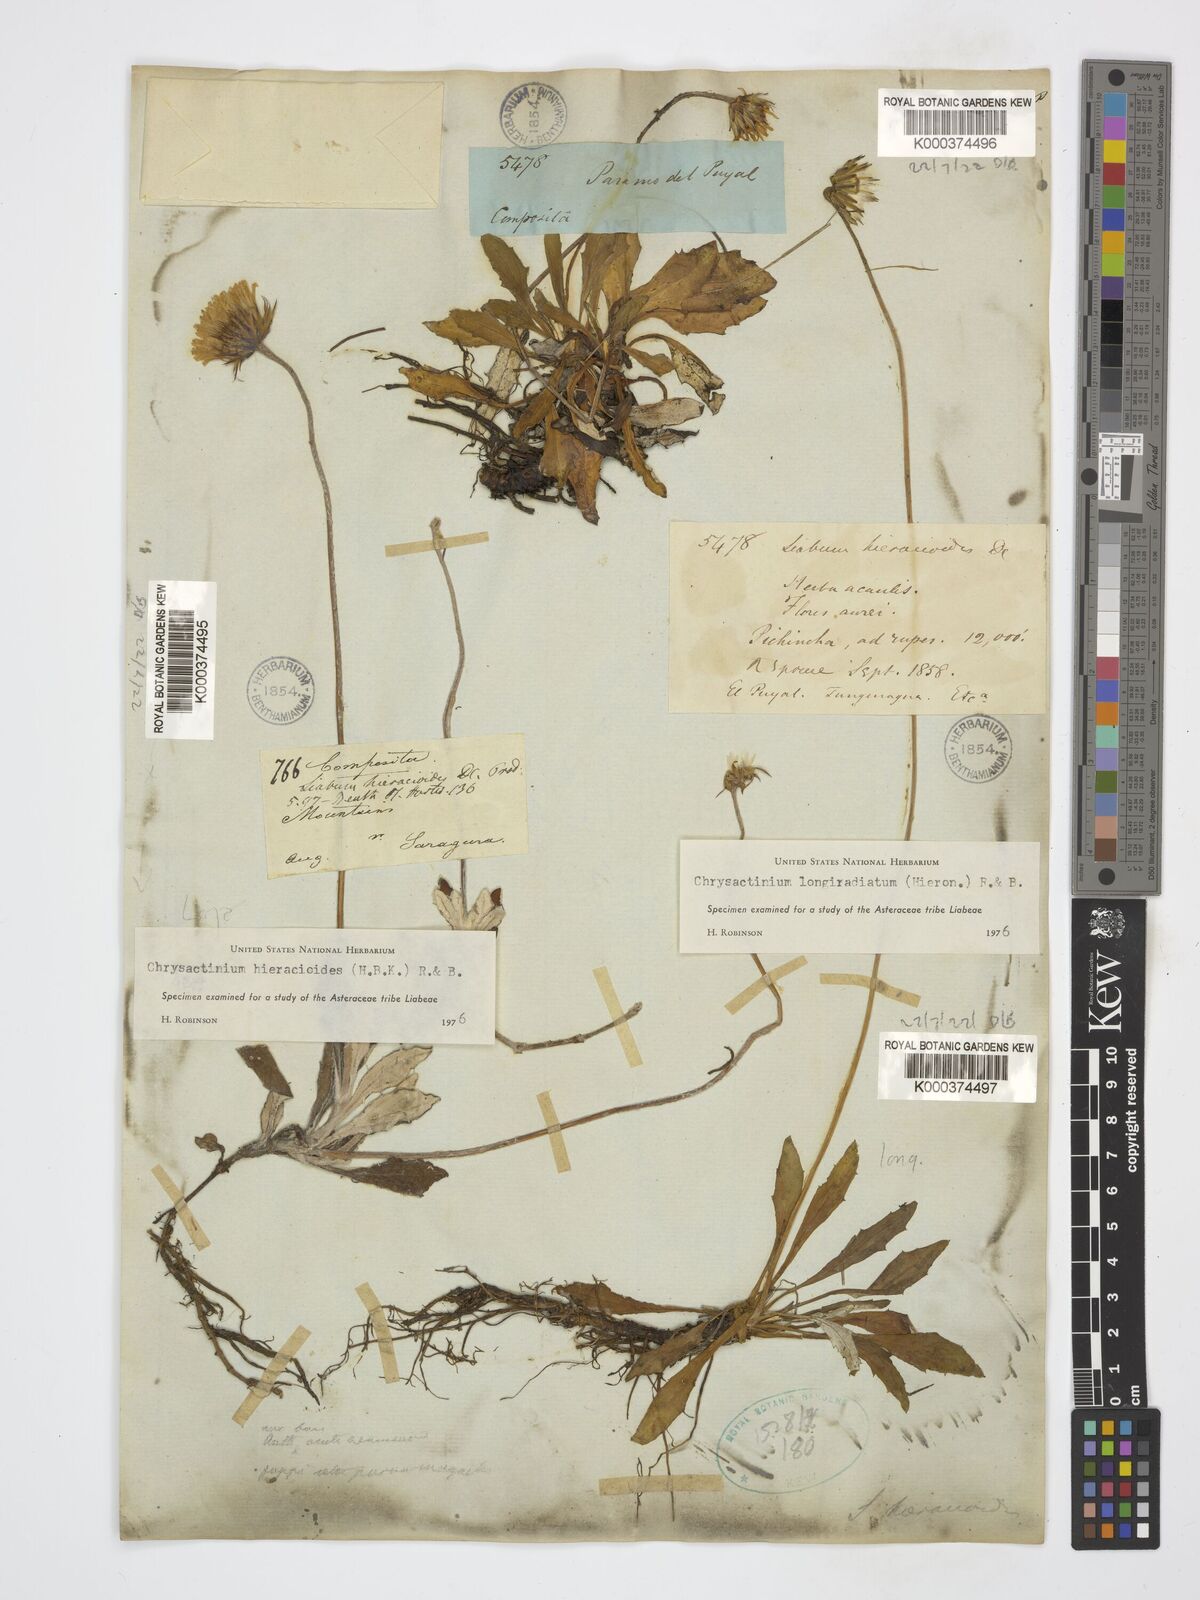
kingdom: Plantae
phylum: Tracheophyta
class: Magnoliopsida
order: Asterales
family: Asteraceae
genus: Chrysactinium
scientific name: Chrysactinium acaule
